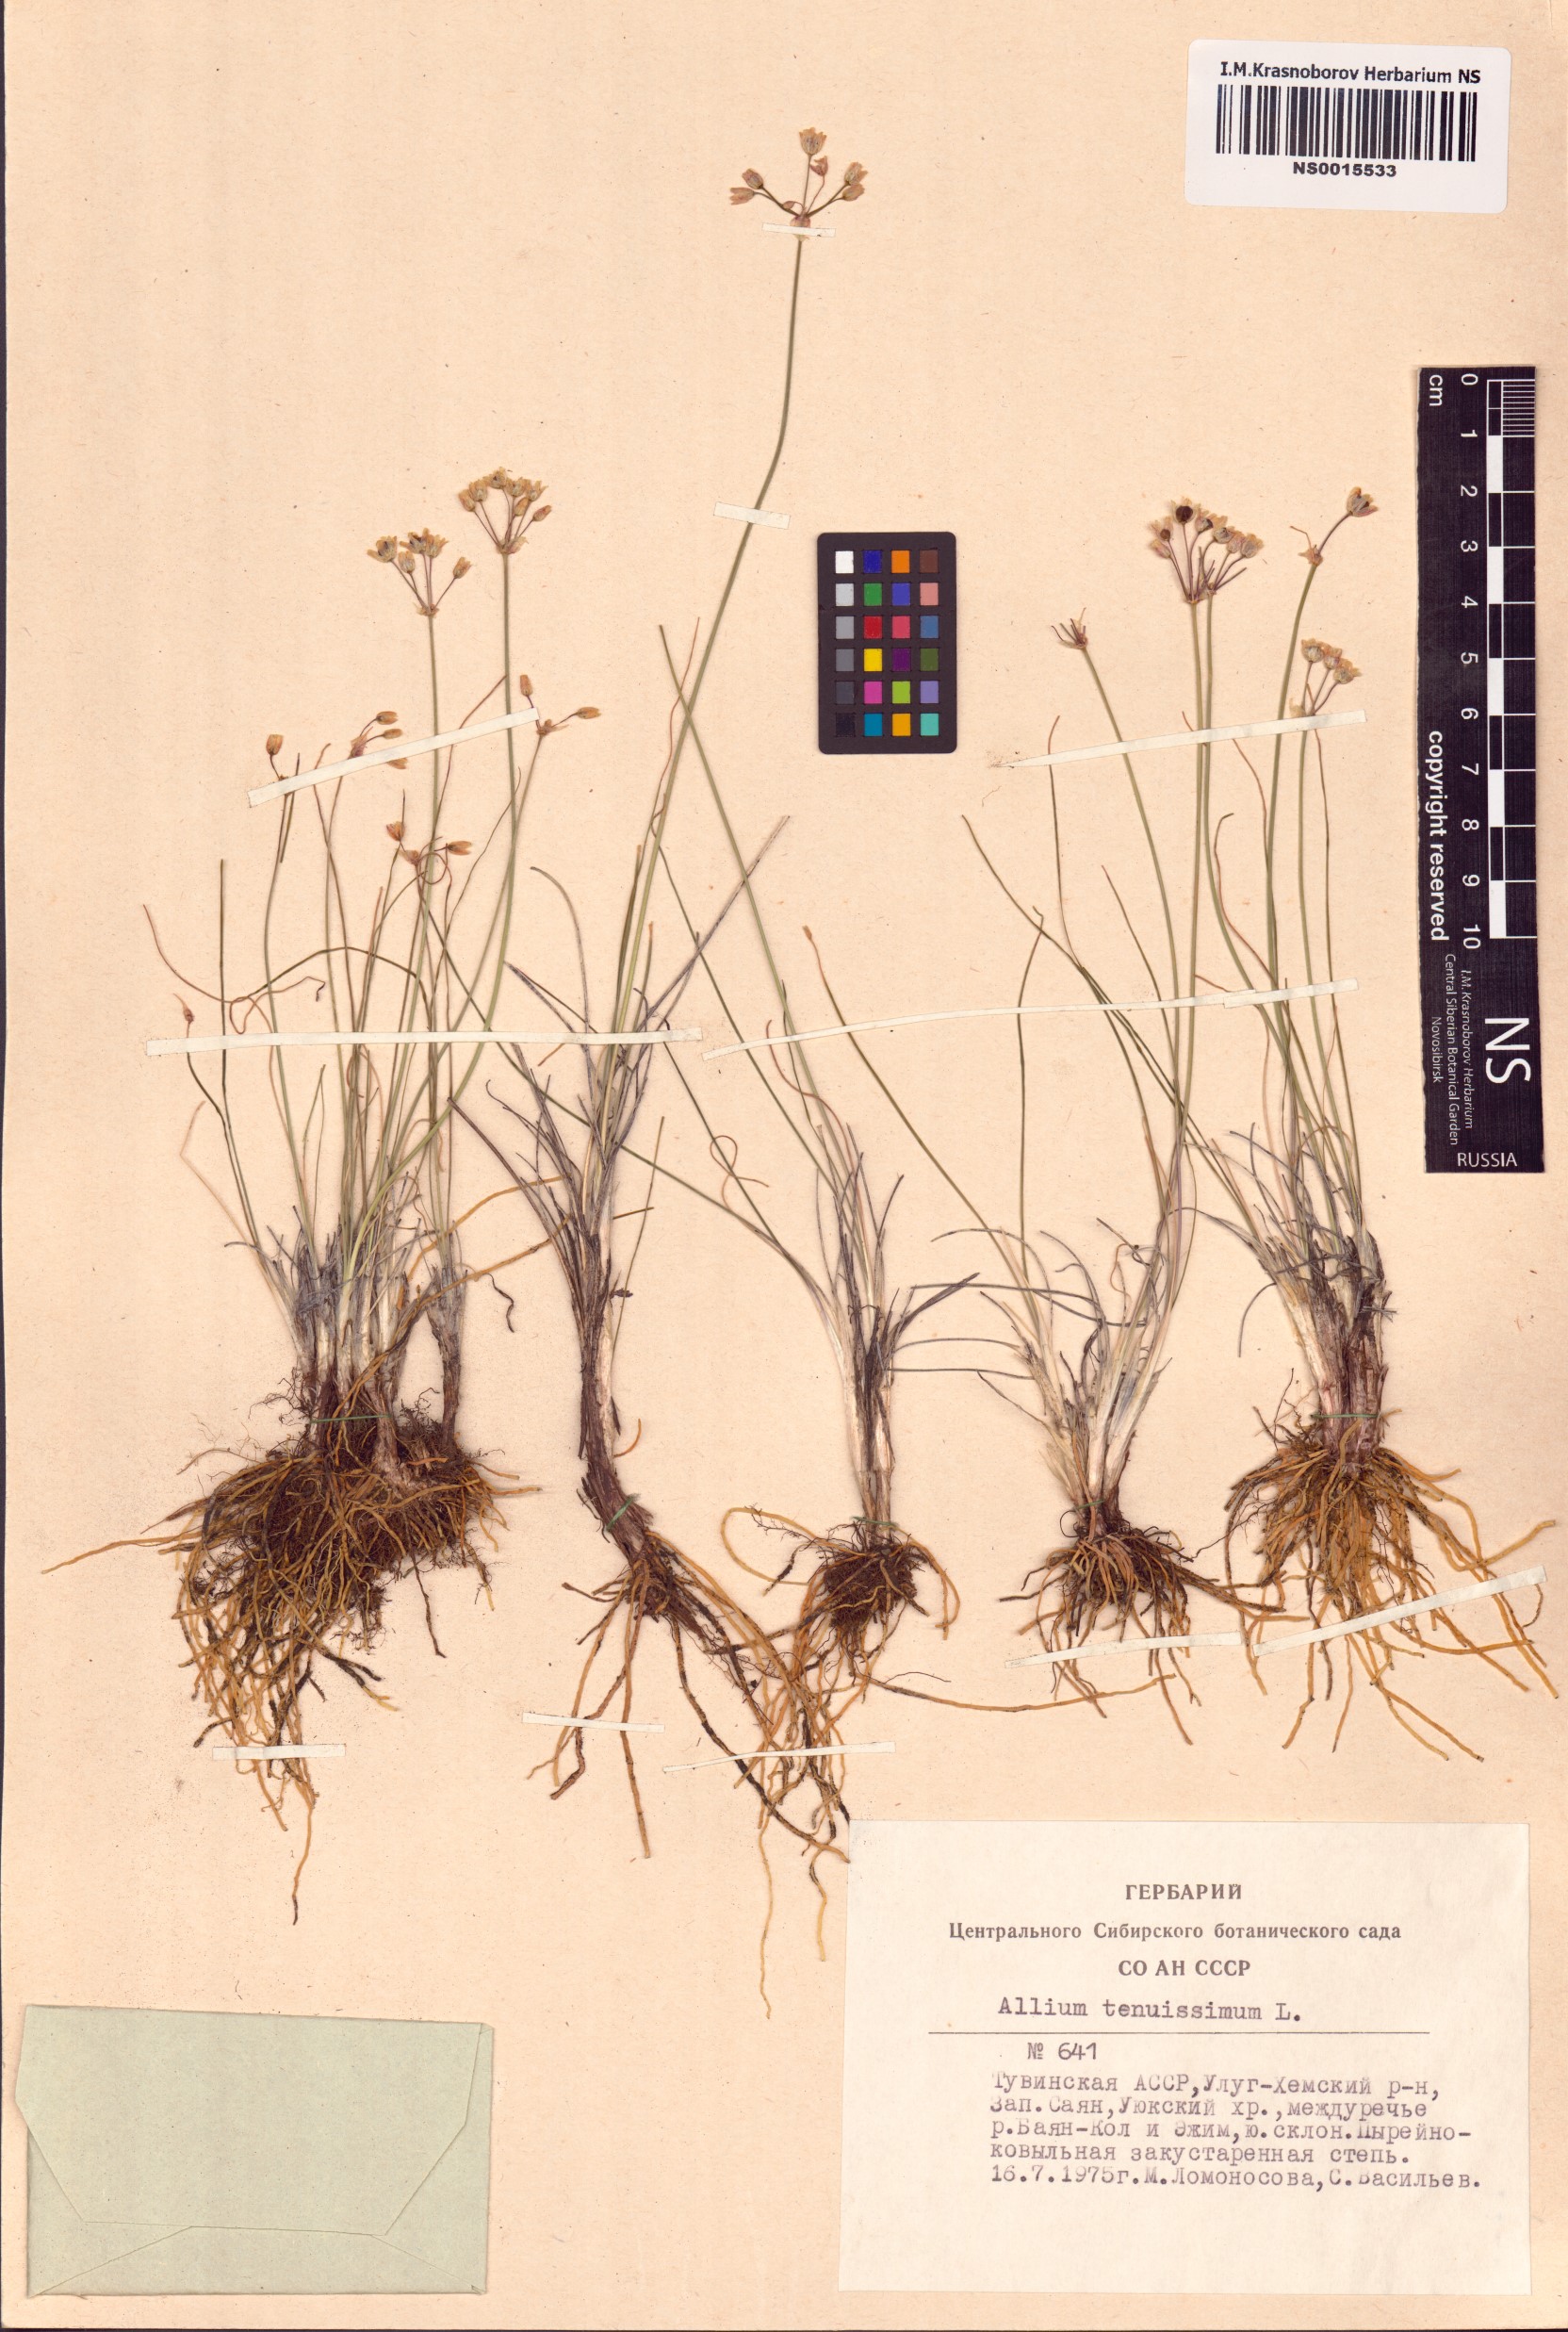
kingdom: Plantae
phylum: Tracheophyta
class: Liliopsida
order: Asparagales
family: Amaryllidaceae
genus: Allium
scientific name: Allium tenuissimum
